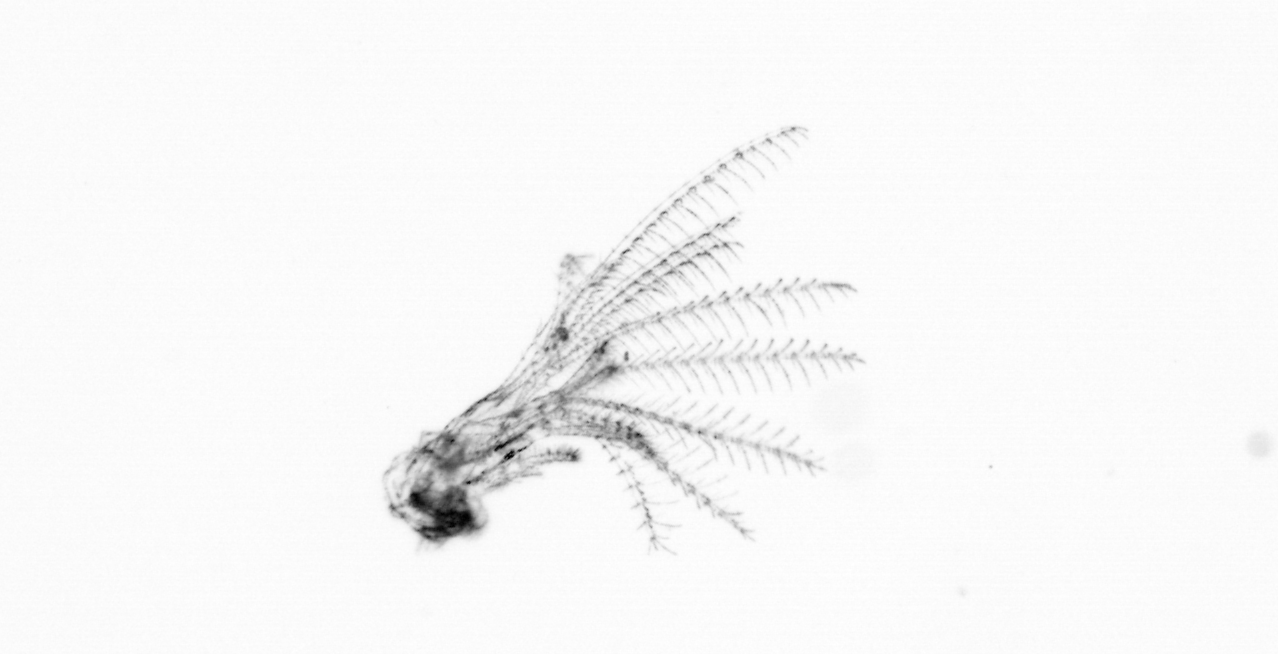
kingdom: Animalia
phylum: Arthropoda
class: Maxillopoda
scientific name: Maxillopoda
